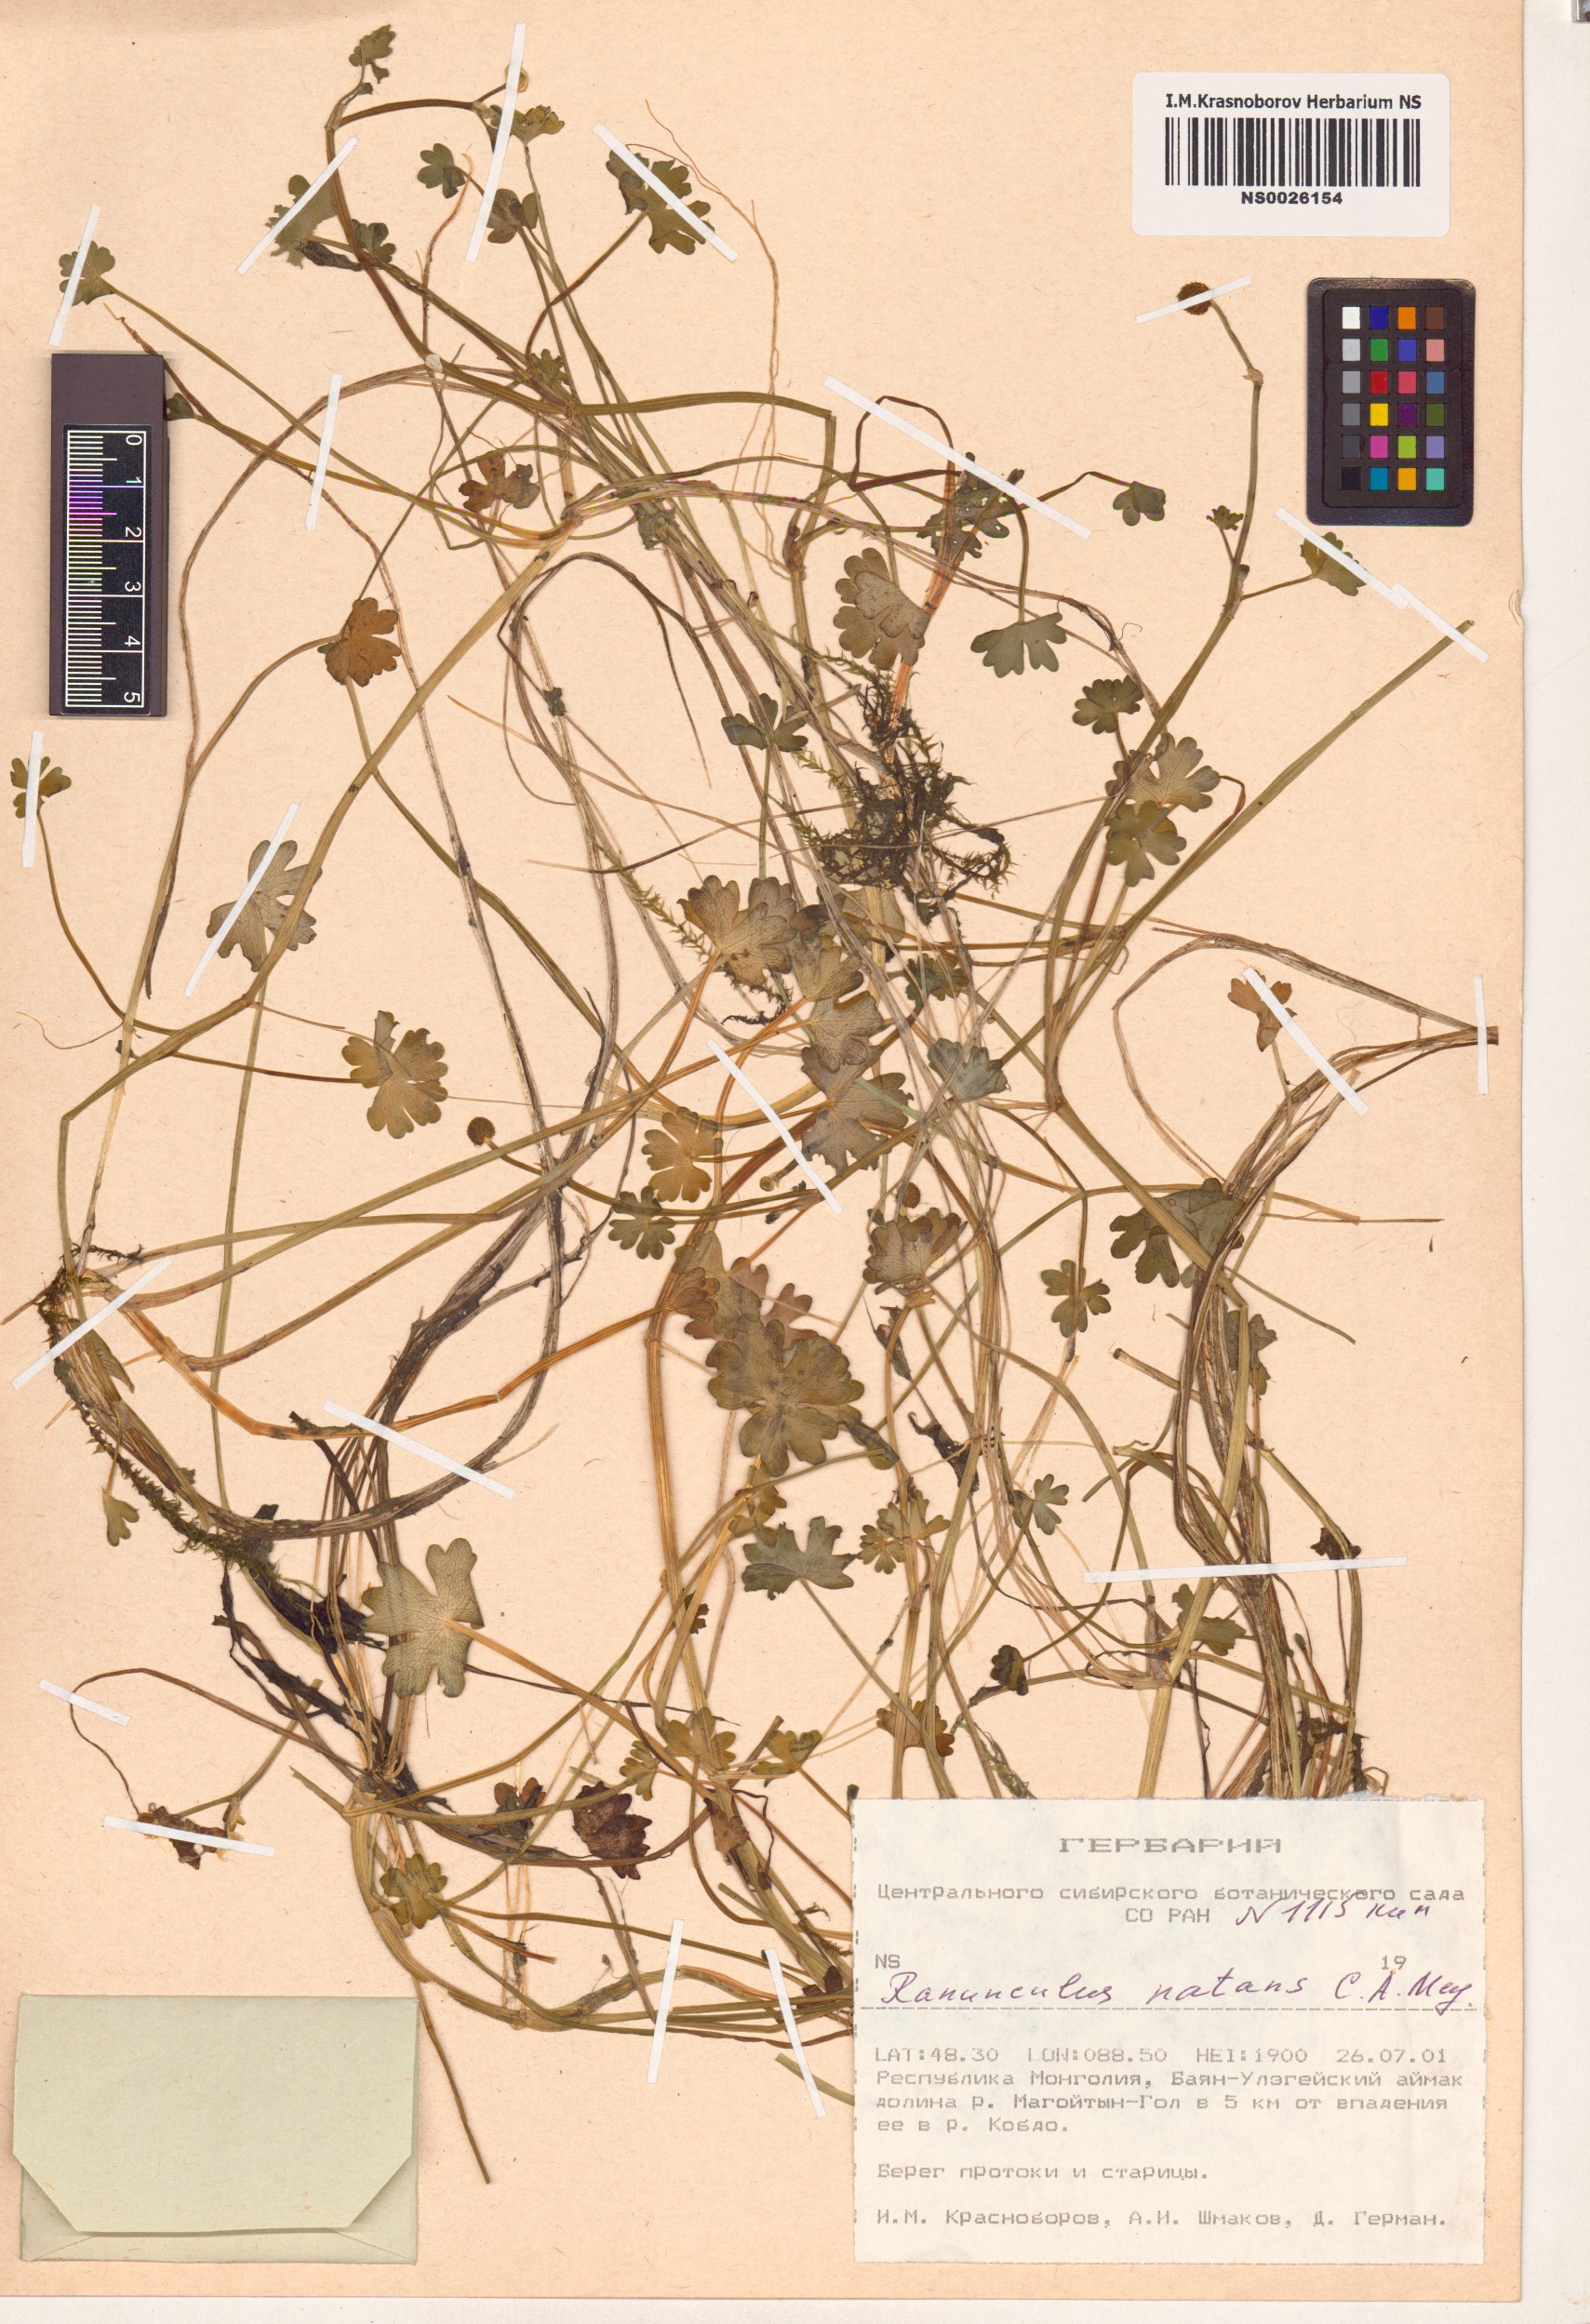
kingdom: Plantae
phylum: Tracheophyta
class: Magnoliopsida
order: Ranunculales
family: Ranunculaceae
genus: Ranunculus
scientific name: Ranunculus natans
